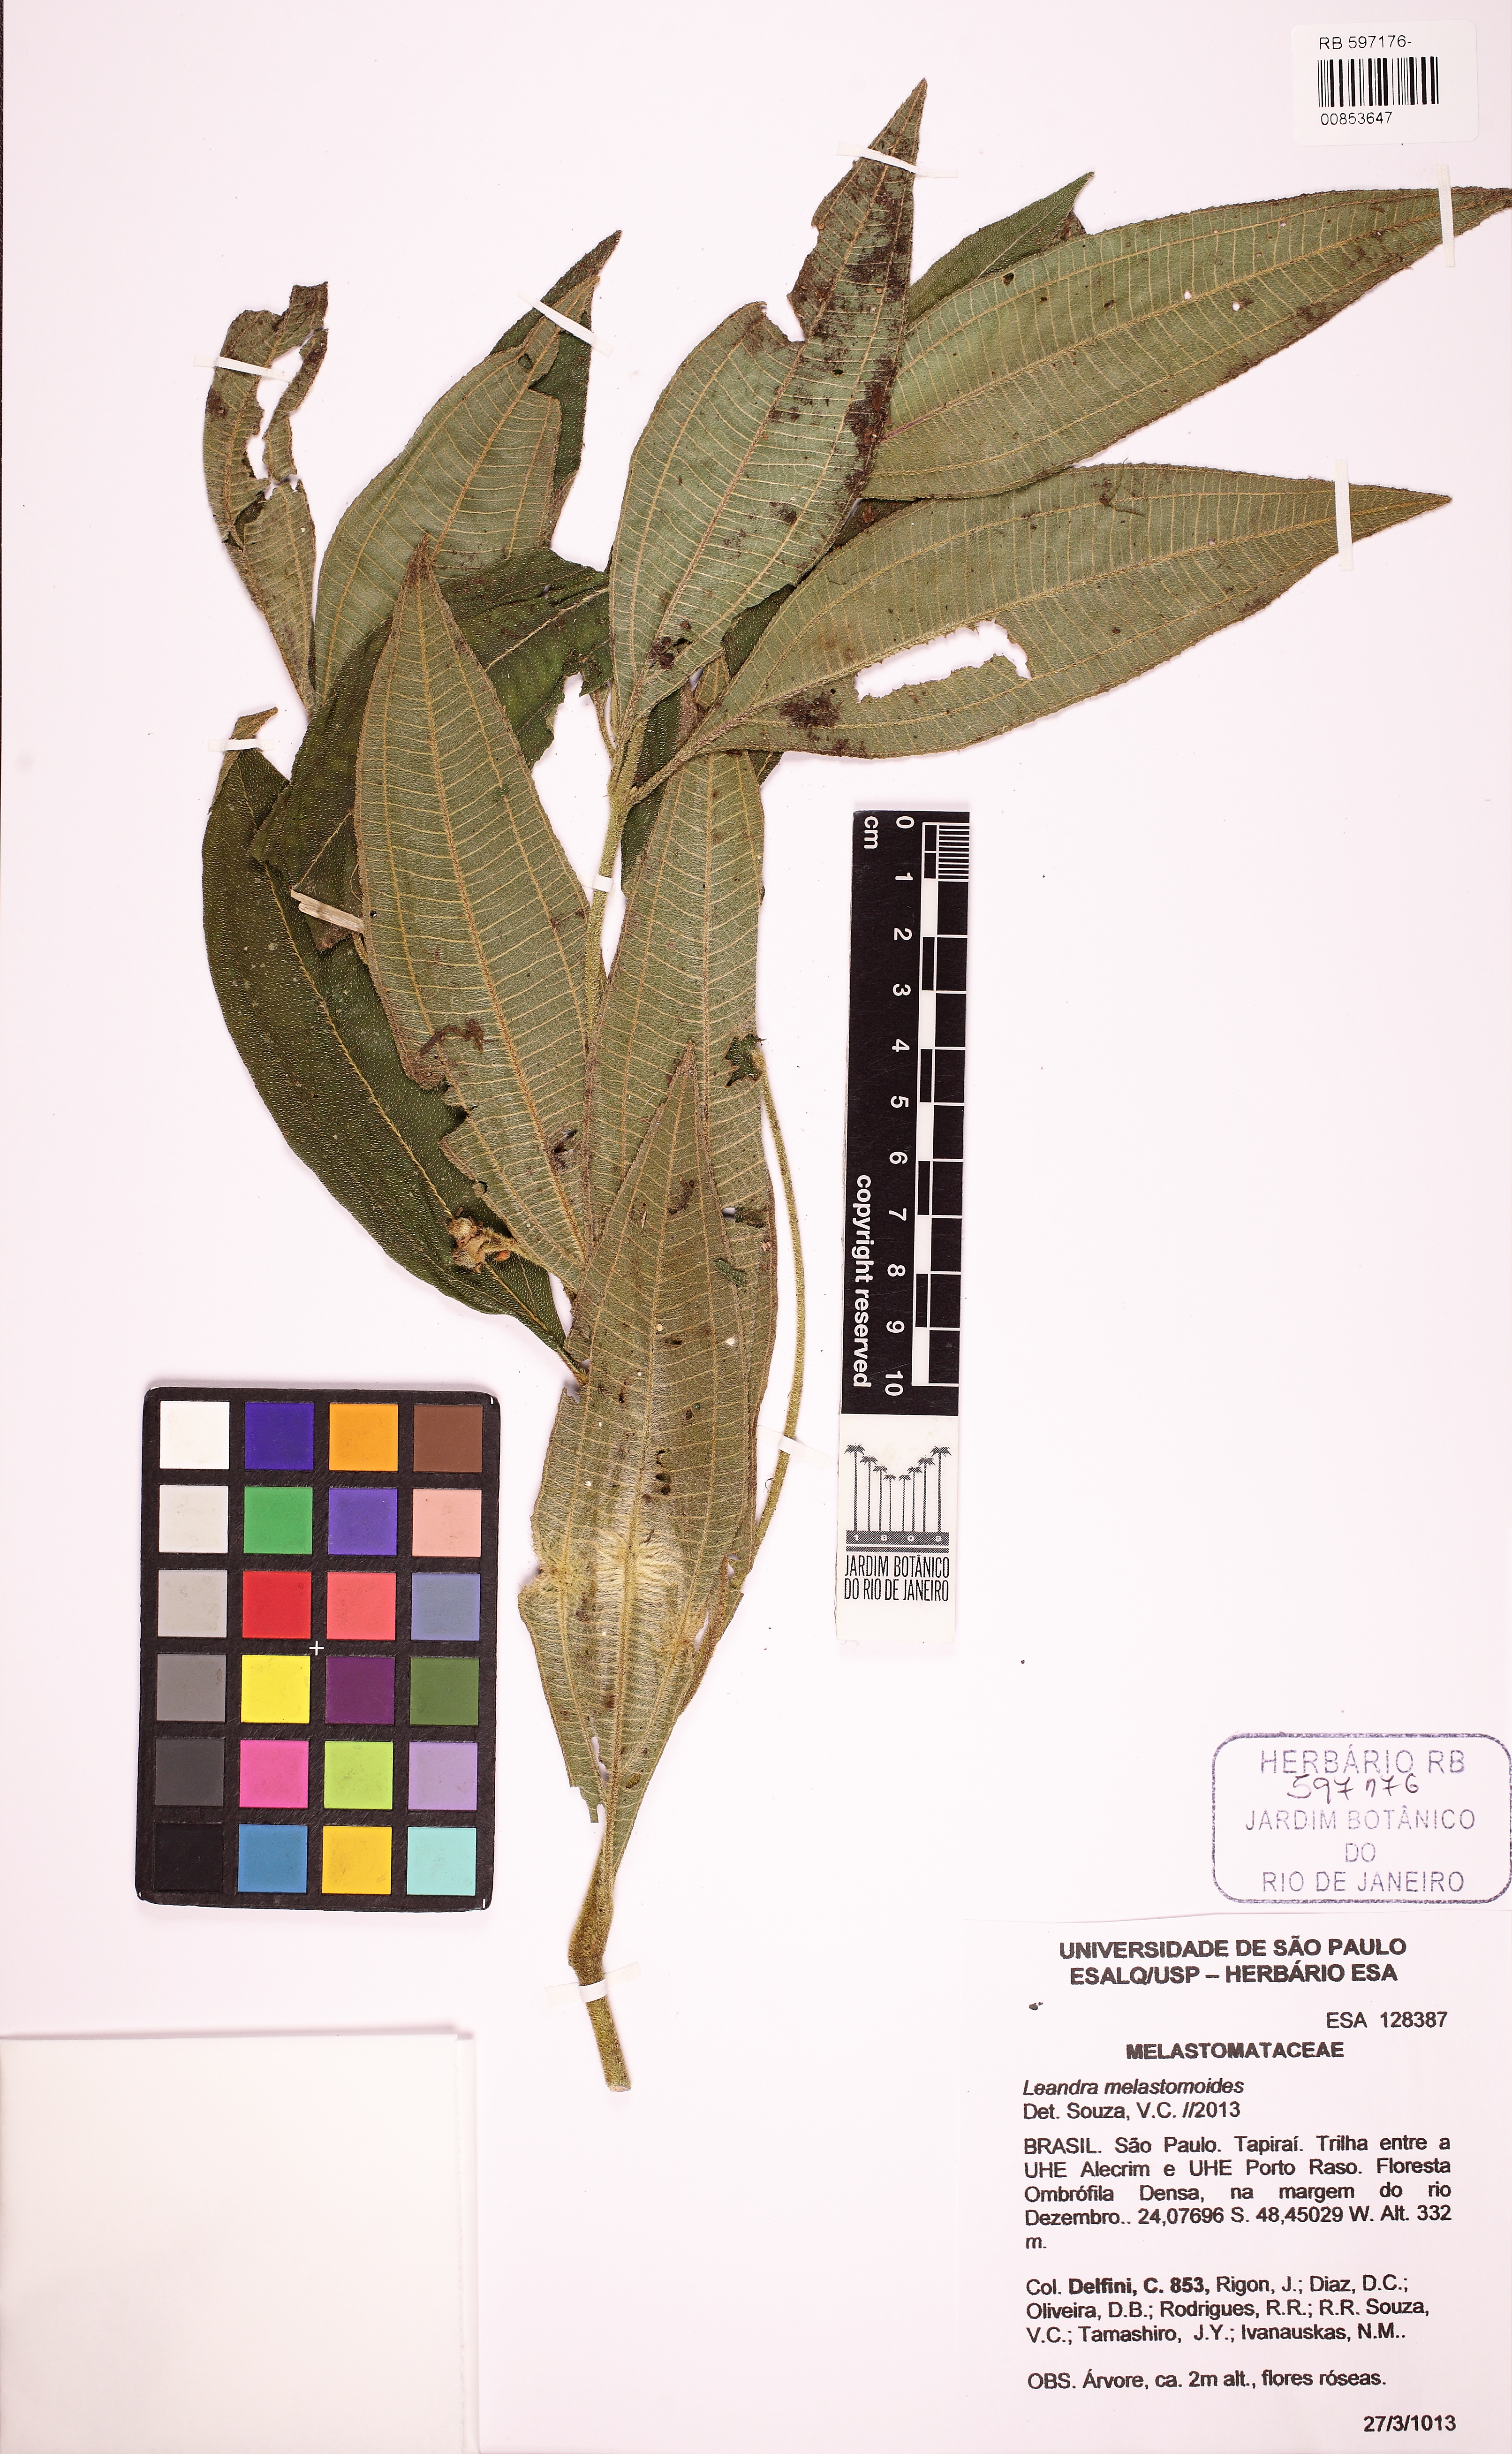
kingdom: Plantae
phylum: Tracheophyta
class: Magnoliopsida
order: Myrtales
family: Melastomataceae
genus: Miconia
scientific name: Miconia melastomoides
